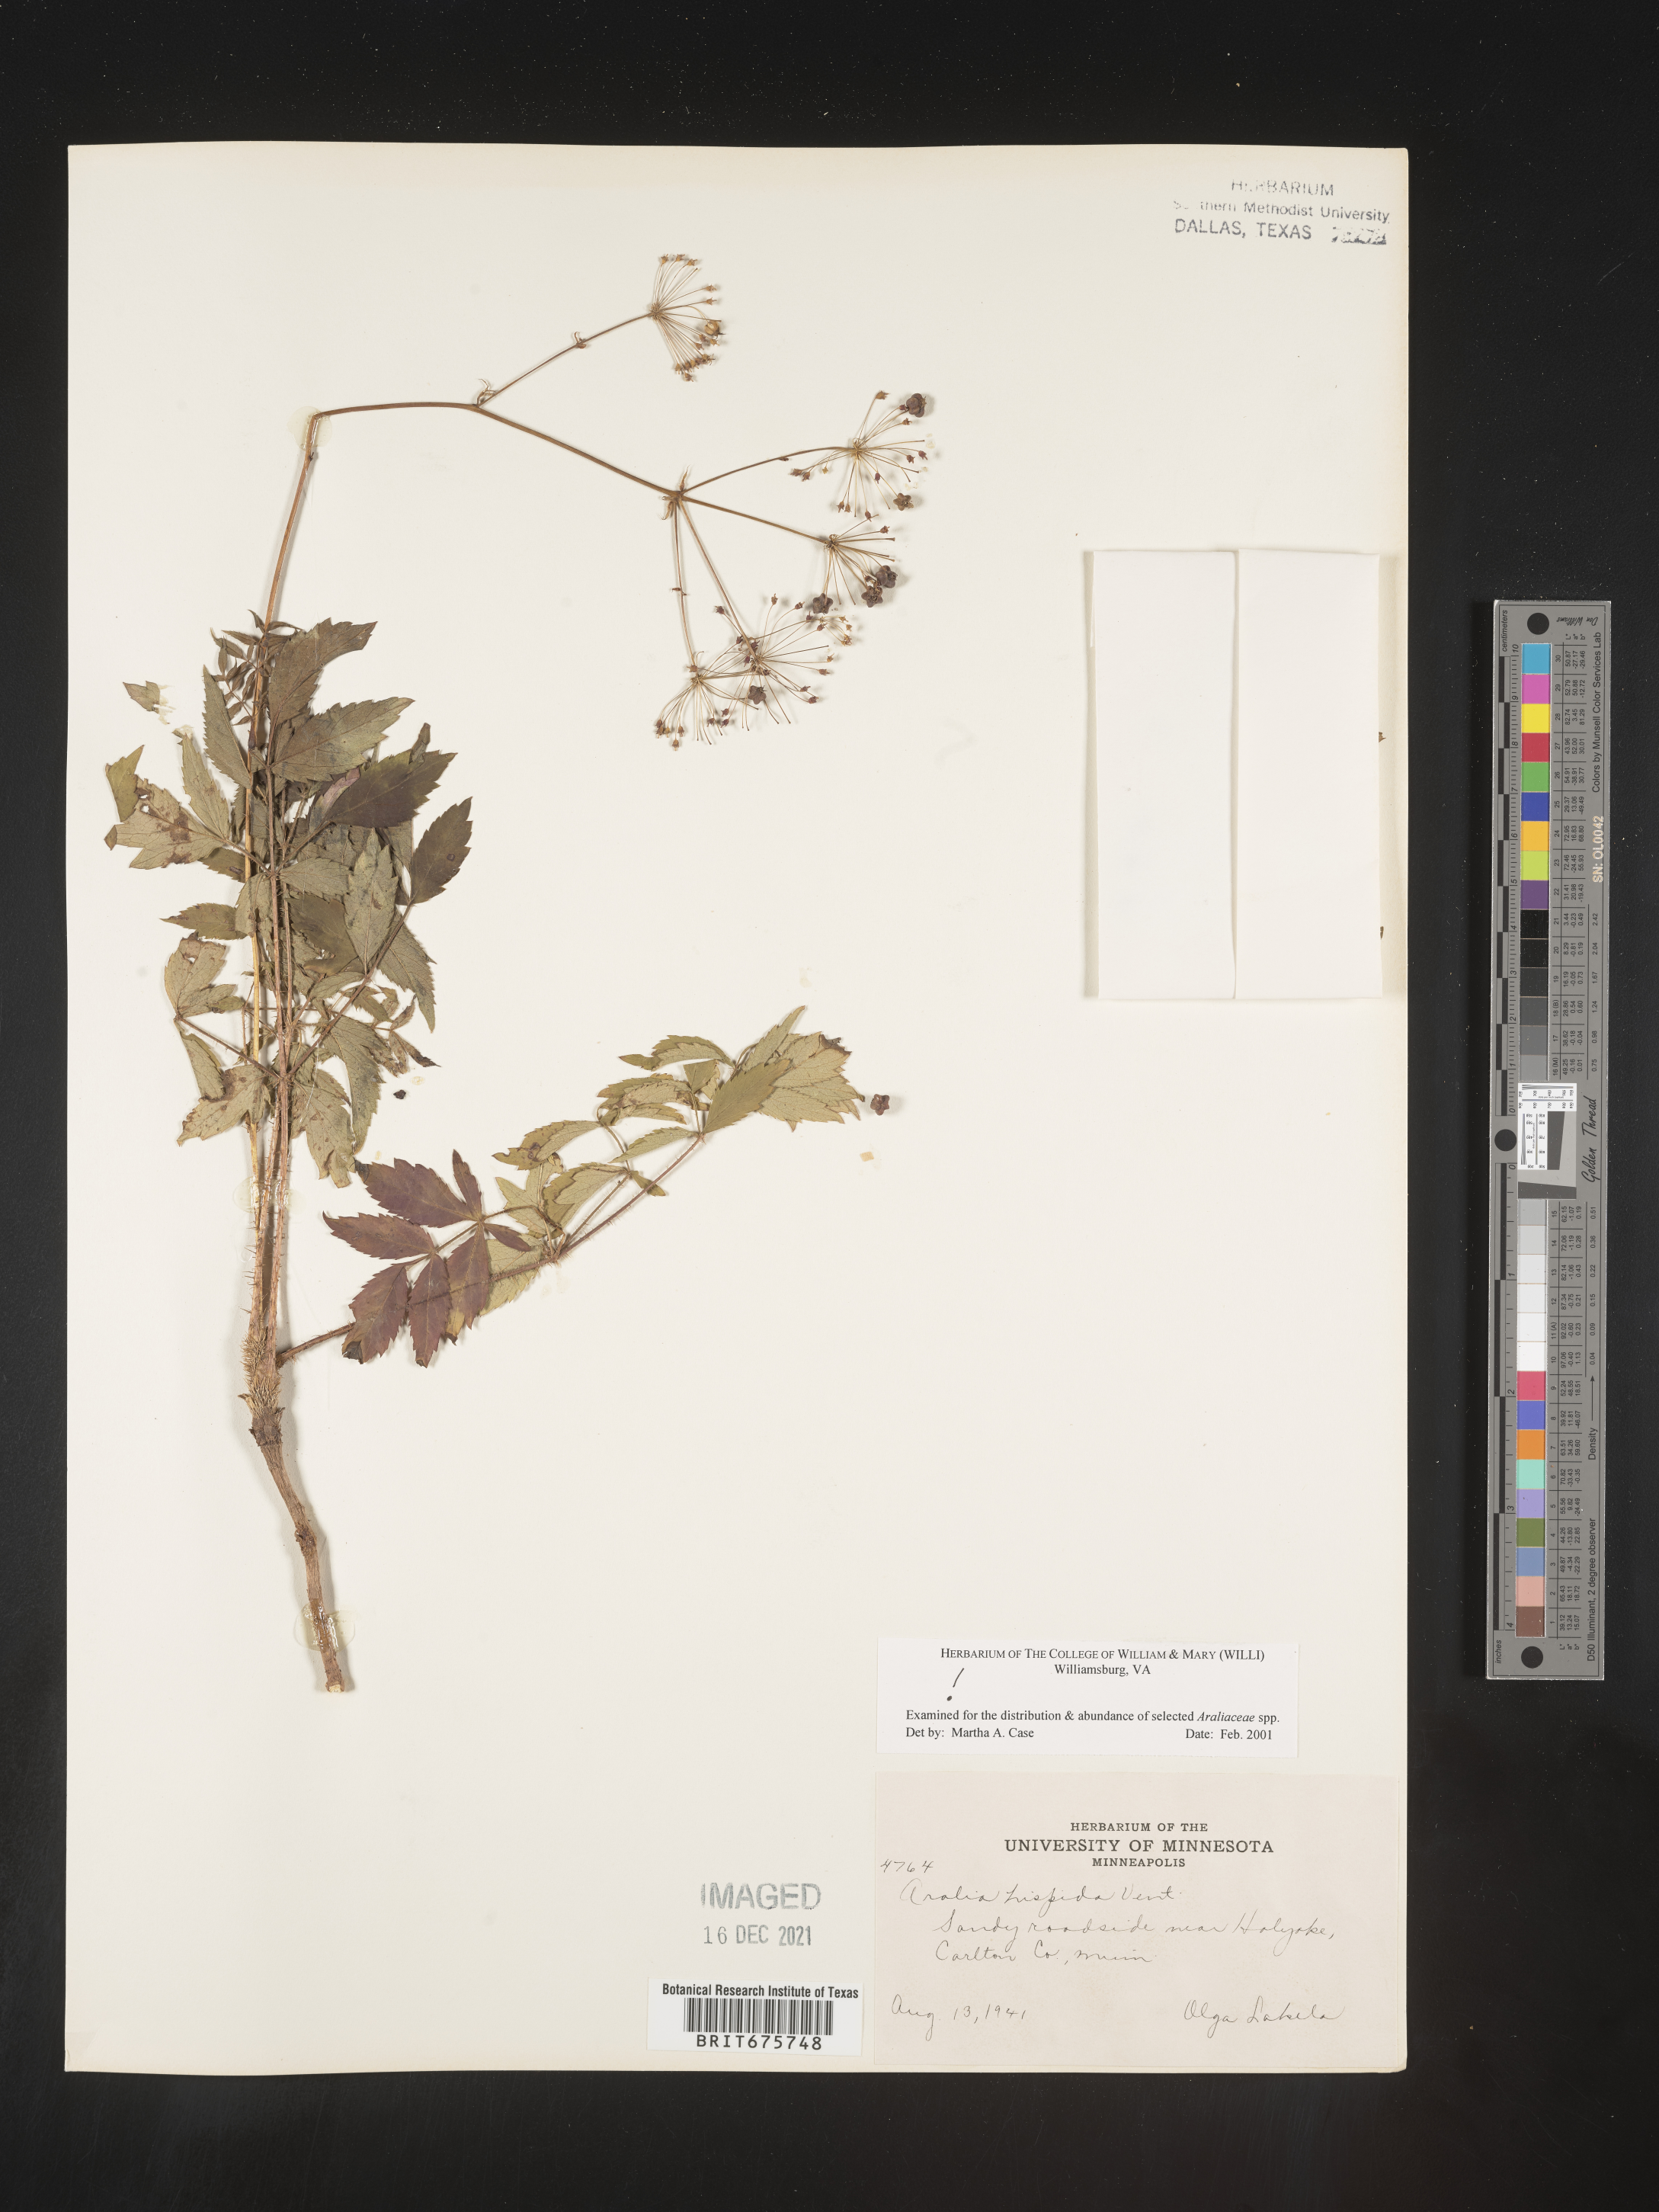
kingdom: Plantae
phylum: Tracheophyta
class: Magnoliopsida
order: Apiales
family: Araliaceae
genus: Aralia
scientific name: Aralia hispida
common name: Bristly sarsaparilla
